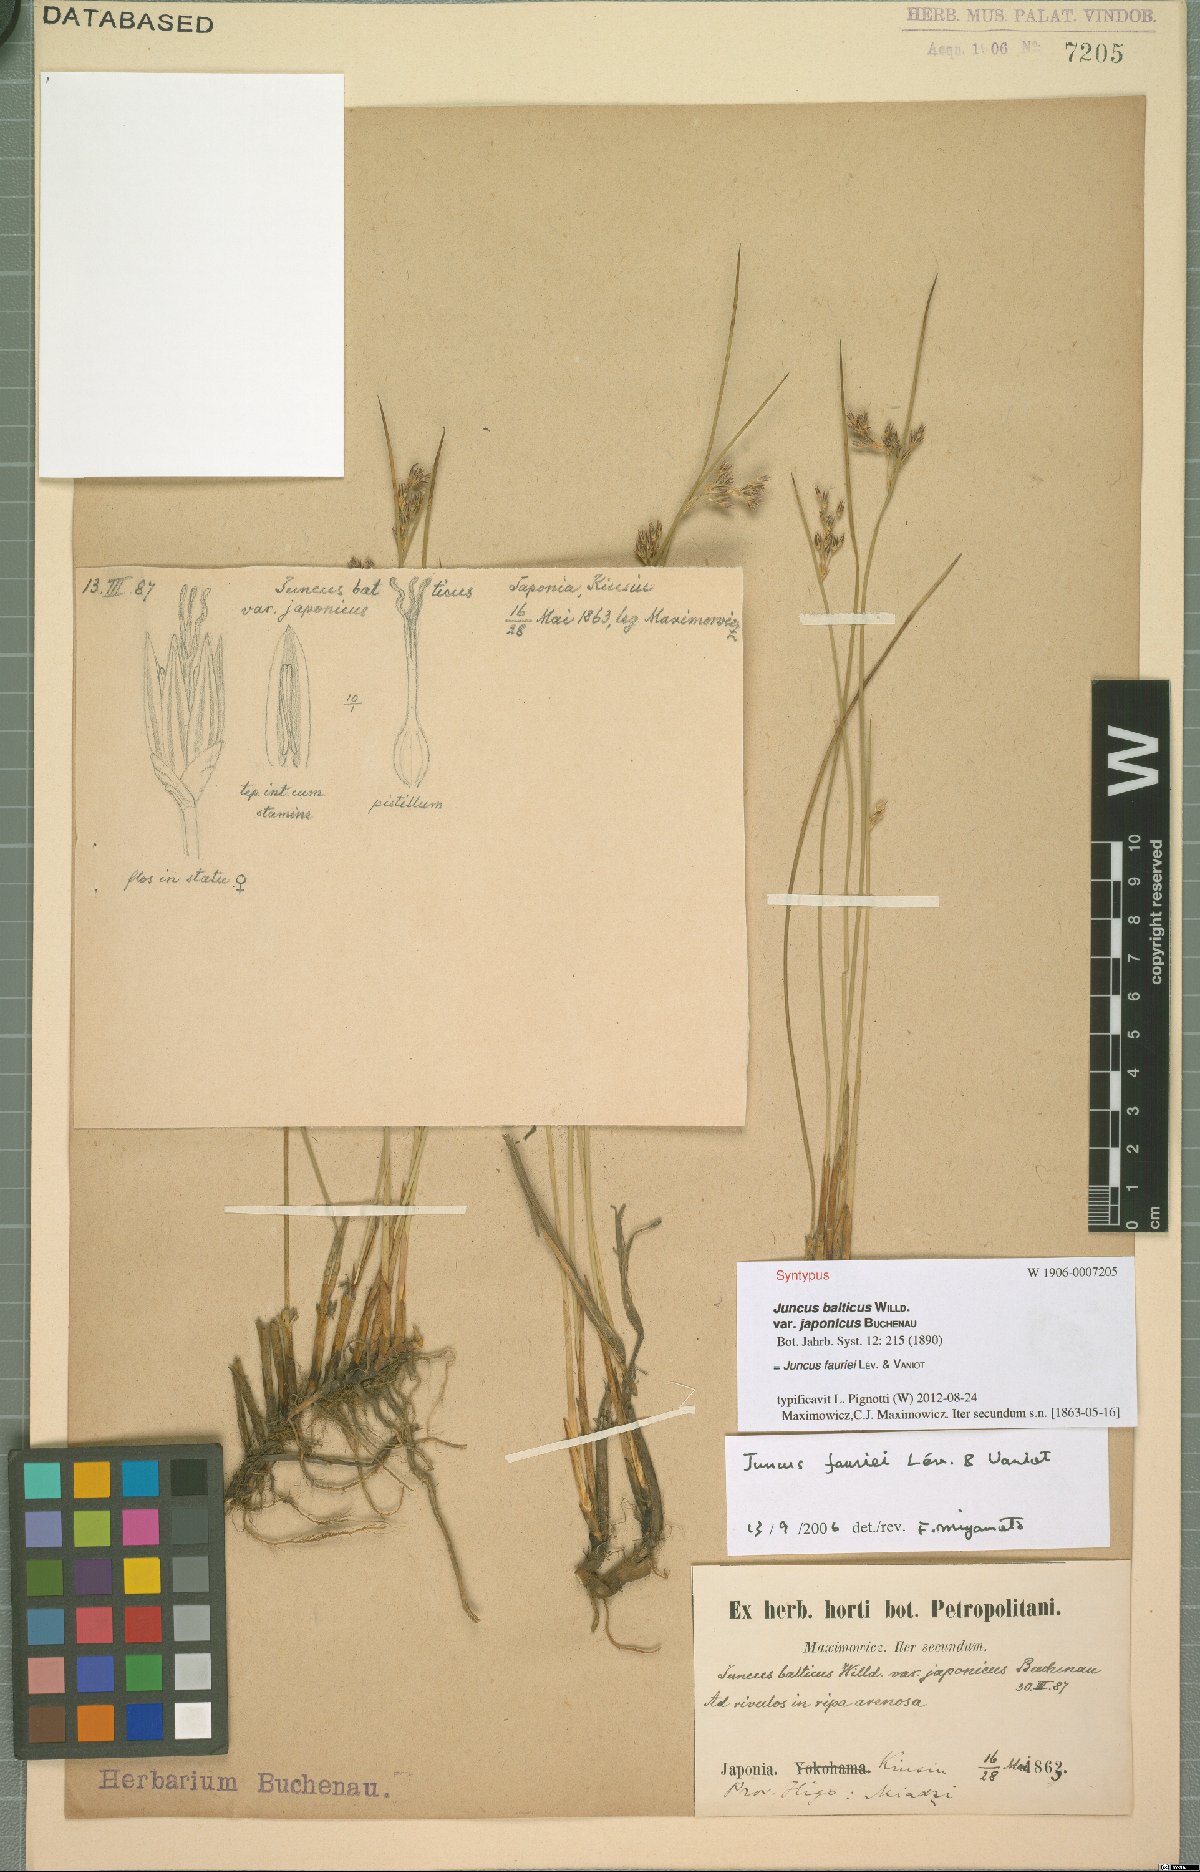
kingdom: Plantae
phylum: Tracheophyta
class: Liliopsida
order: Poales
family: Juncaceae
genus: Juncus
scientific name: Juncus fauriei
